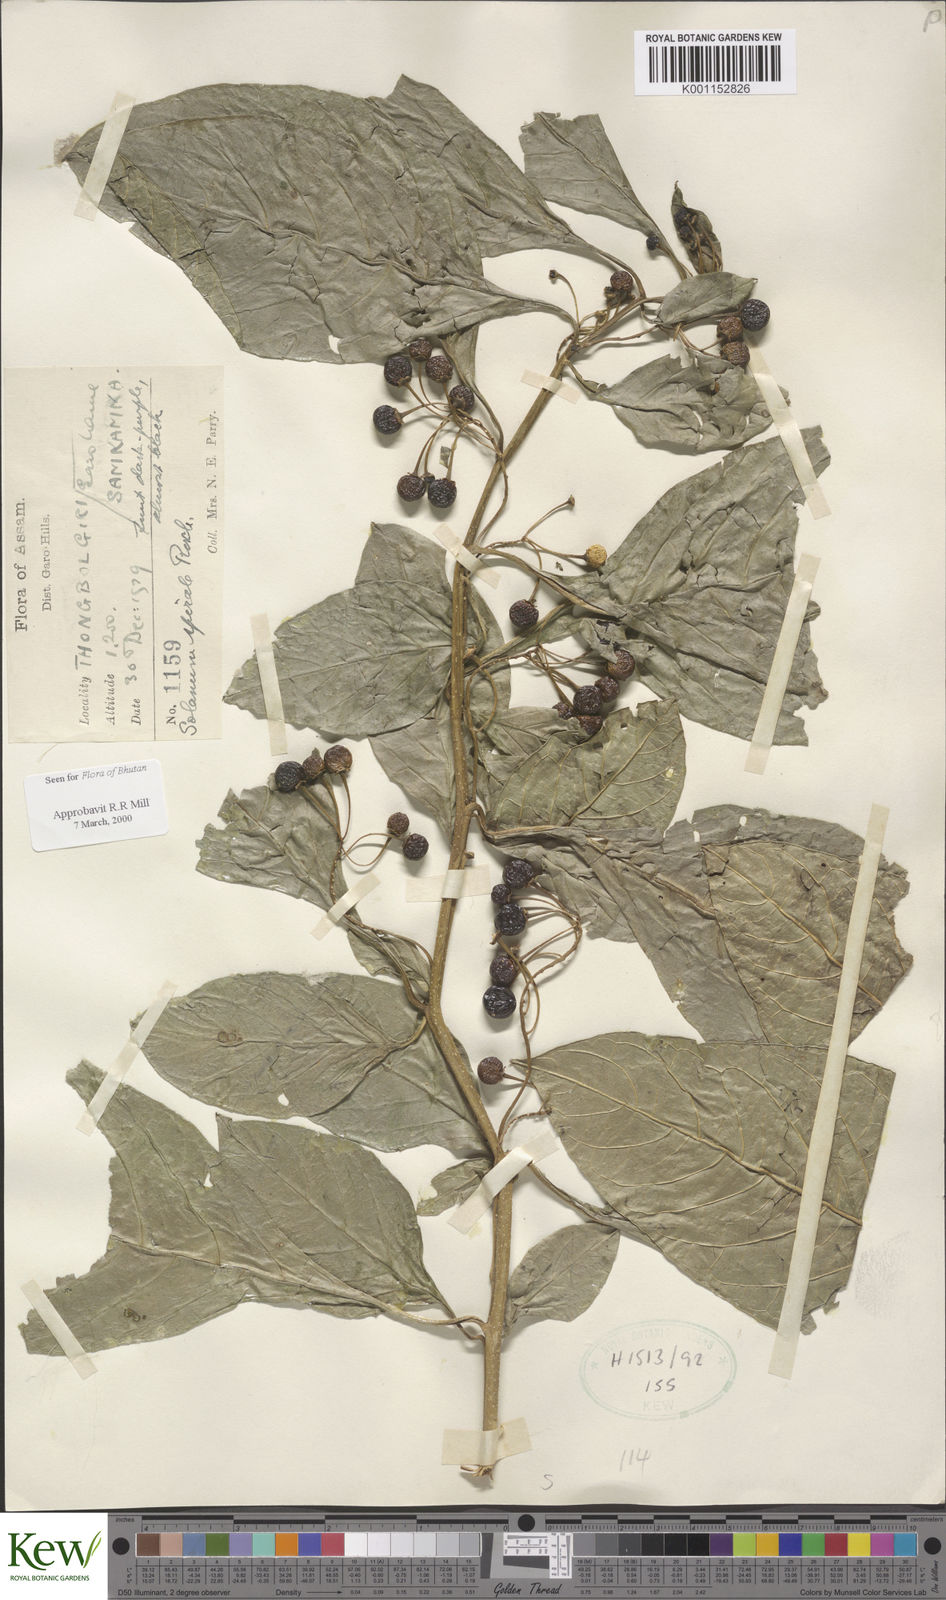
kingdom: Plantae
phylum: Tracheophyta
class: Magnoliopsida
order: Solanales
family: Solanaceae
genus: Solanum
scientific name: Solanum spirale
